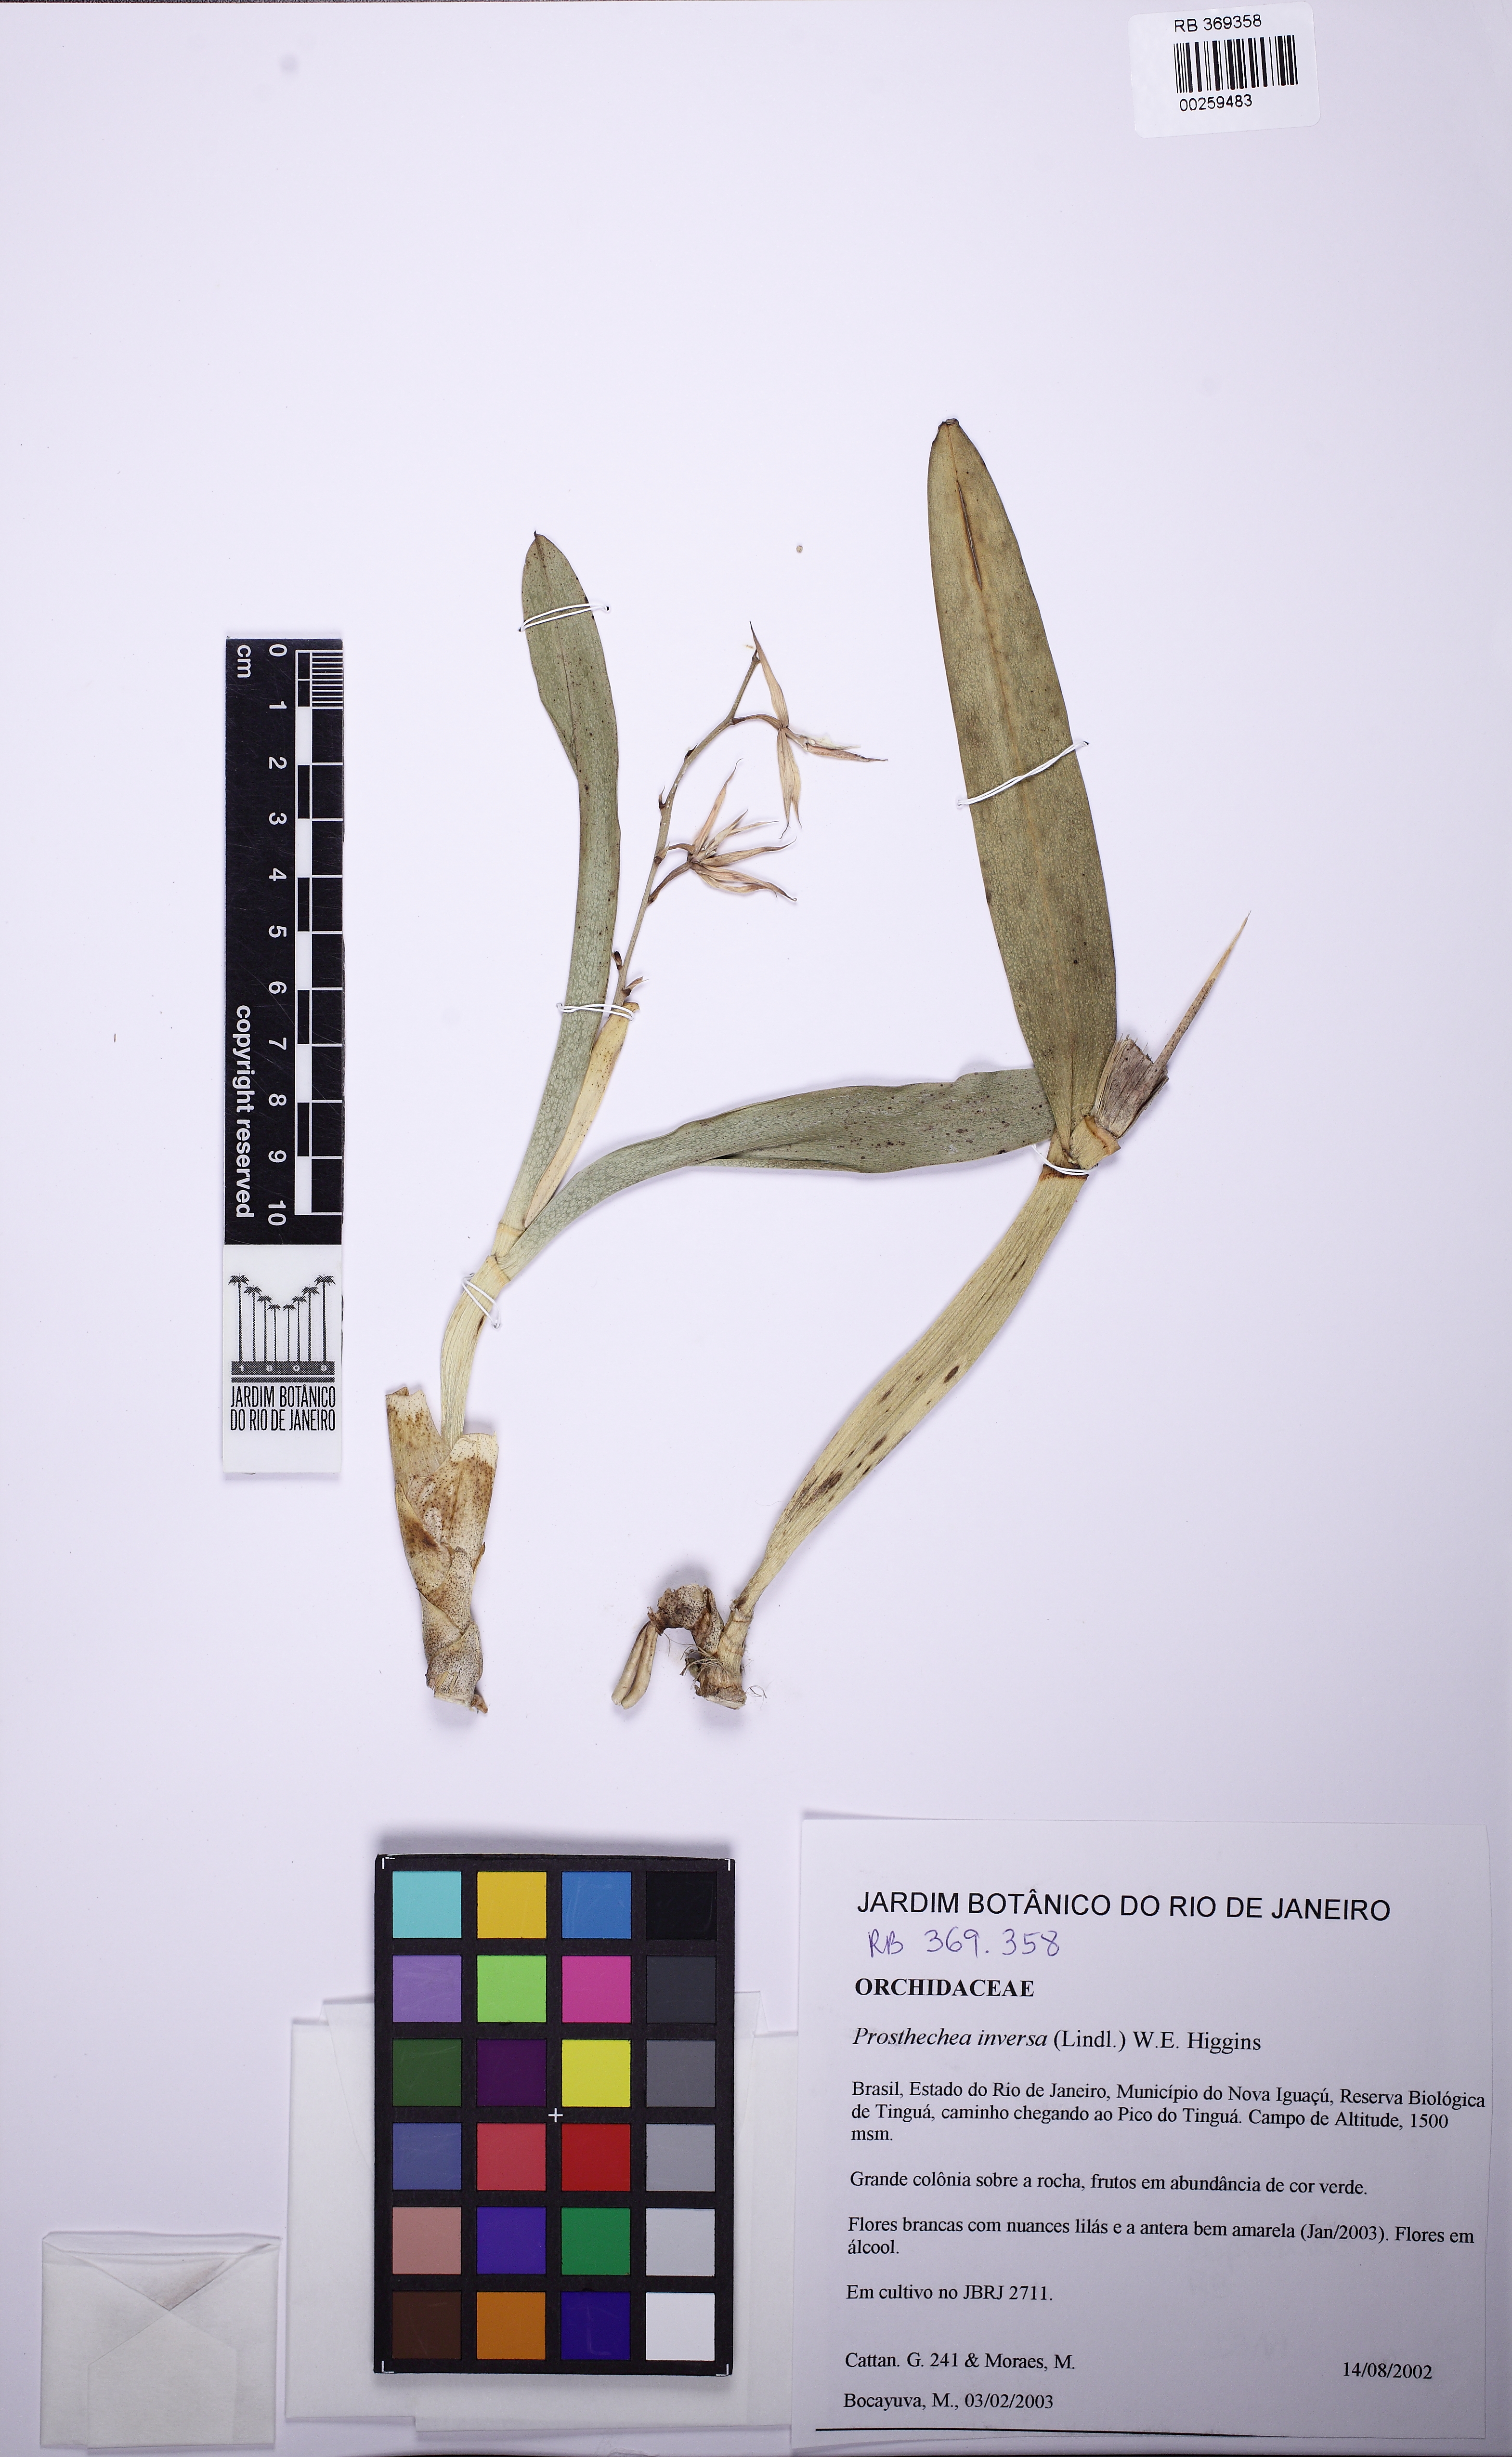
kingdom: Plantae
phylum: Tracheophyta
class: Liliopsida
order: Asparagales
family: Orchidaceae
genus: Prosthechea
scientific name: Prosthechea bulbosa
